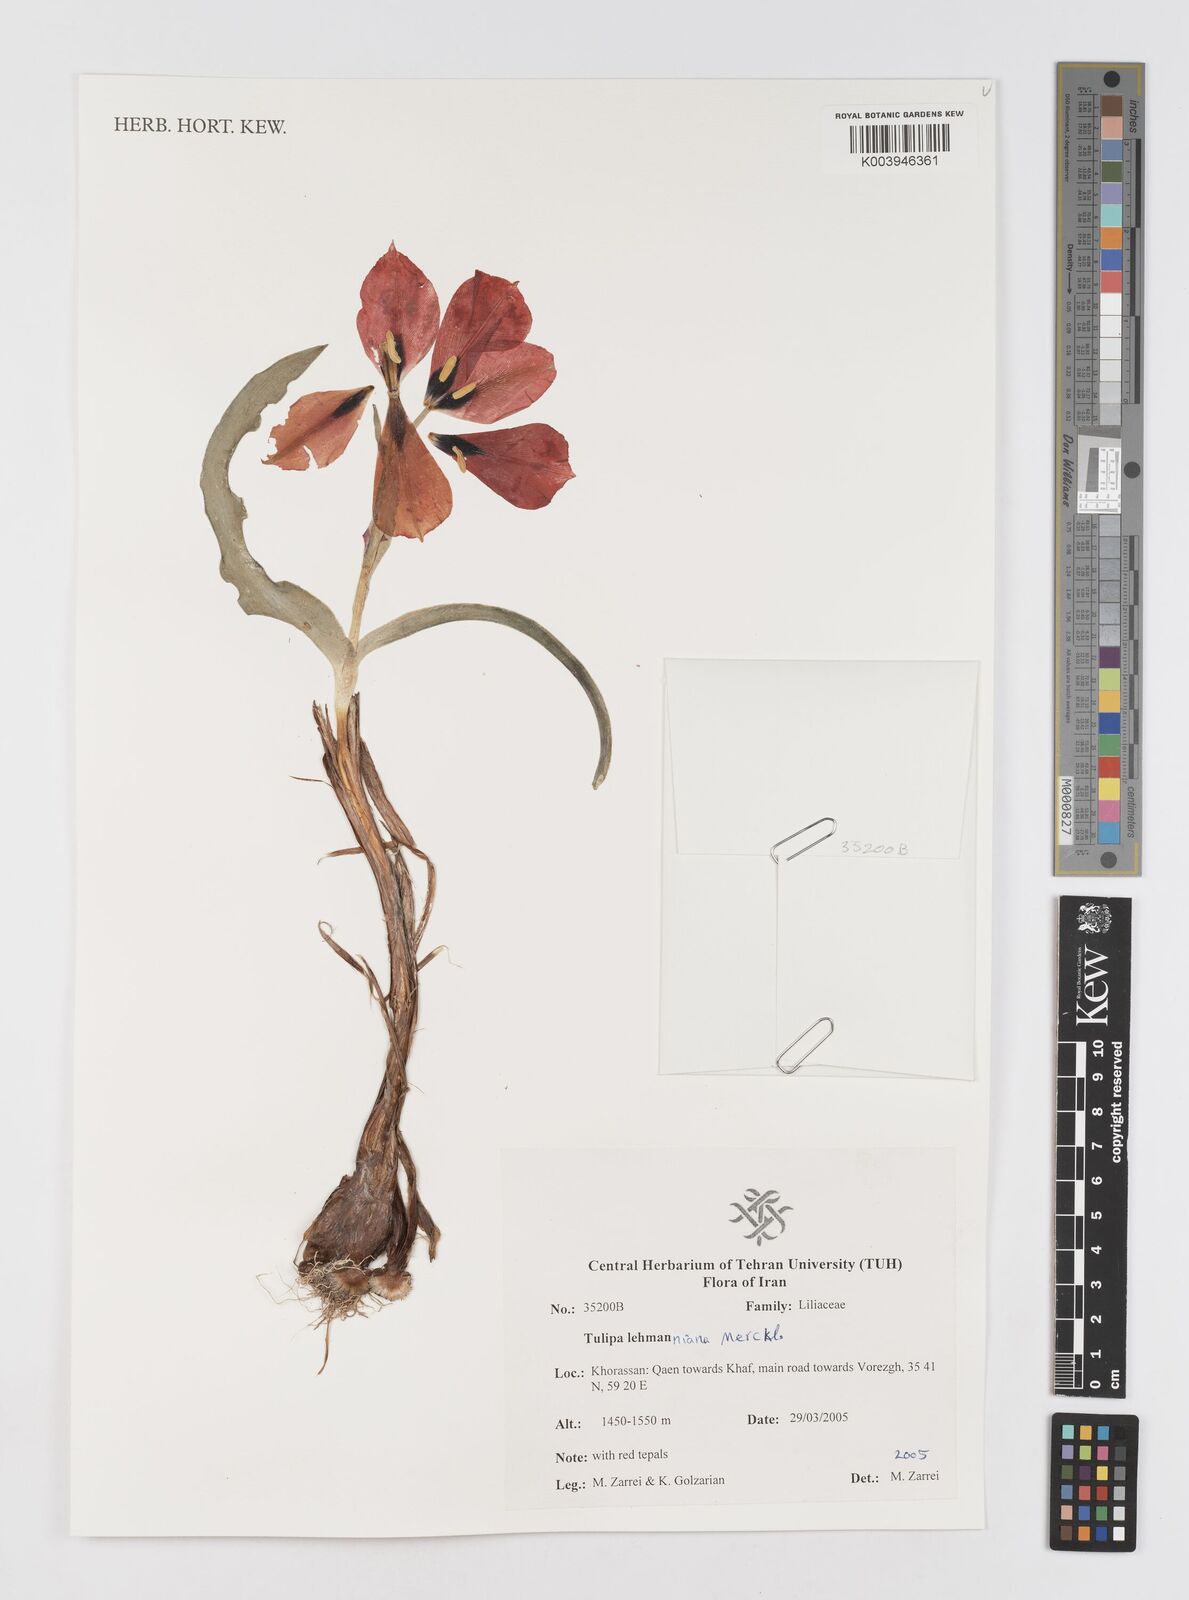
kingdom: Plantae
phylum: Tracheophyta
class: Liliopsida
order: Liliales
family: Liliaceae
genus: Tulipa
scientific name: Tulipa lehmanniana
